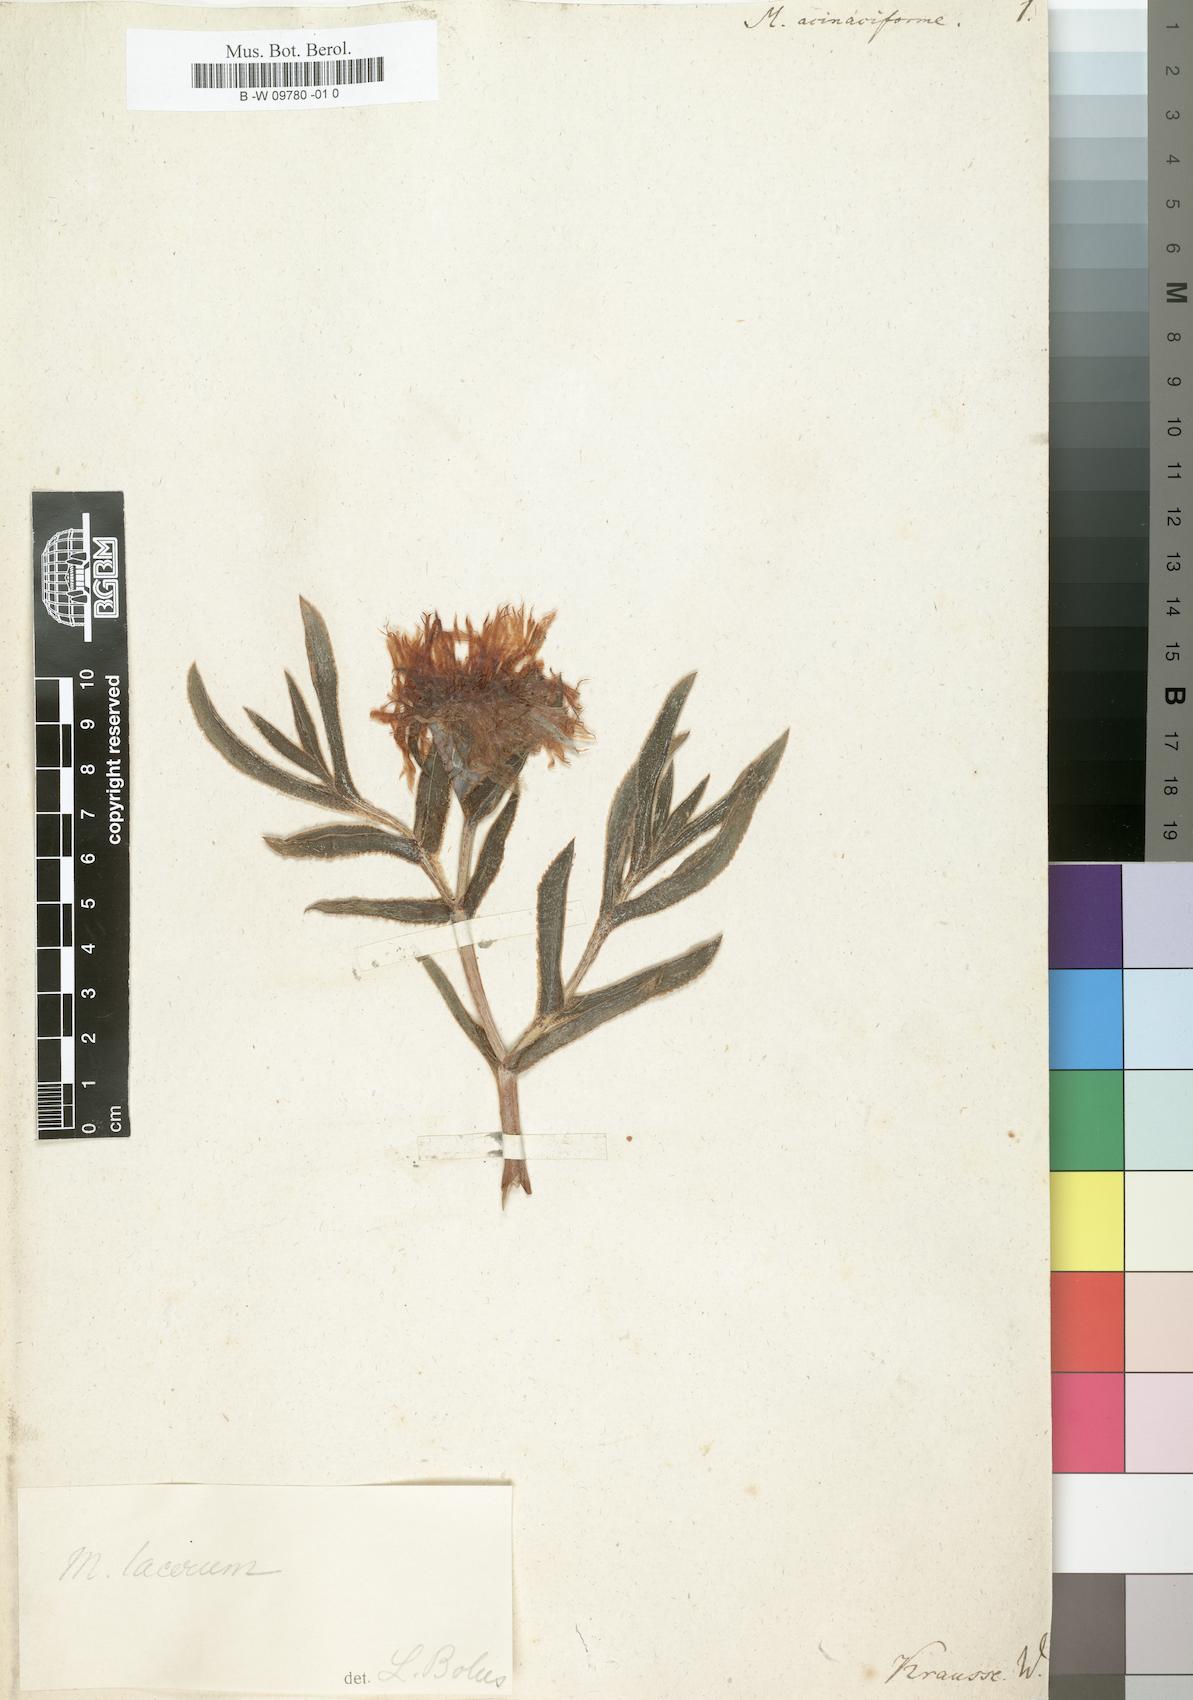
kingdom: Plantae
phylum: Tracheophyta
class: Magnoliopsida
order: Caryophyllales
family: Aizoaceae
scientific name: Aizoaceae
